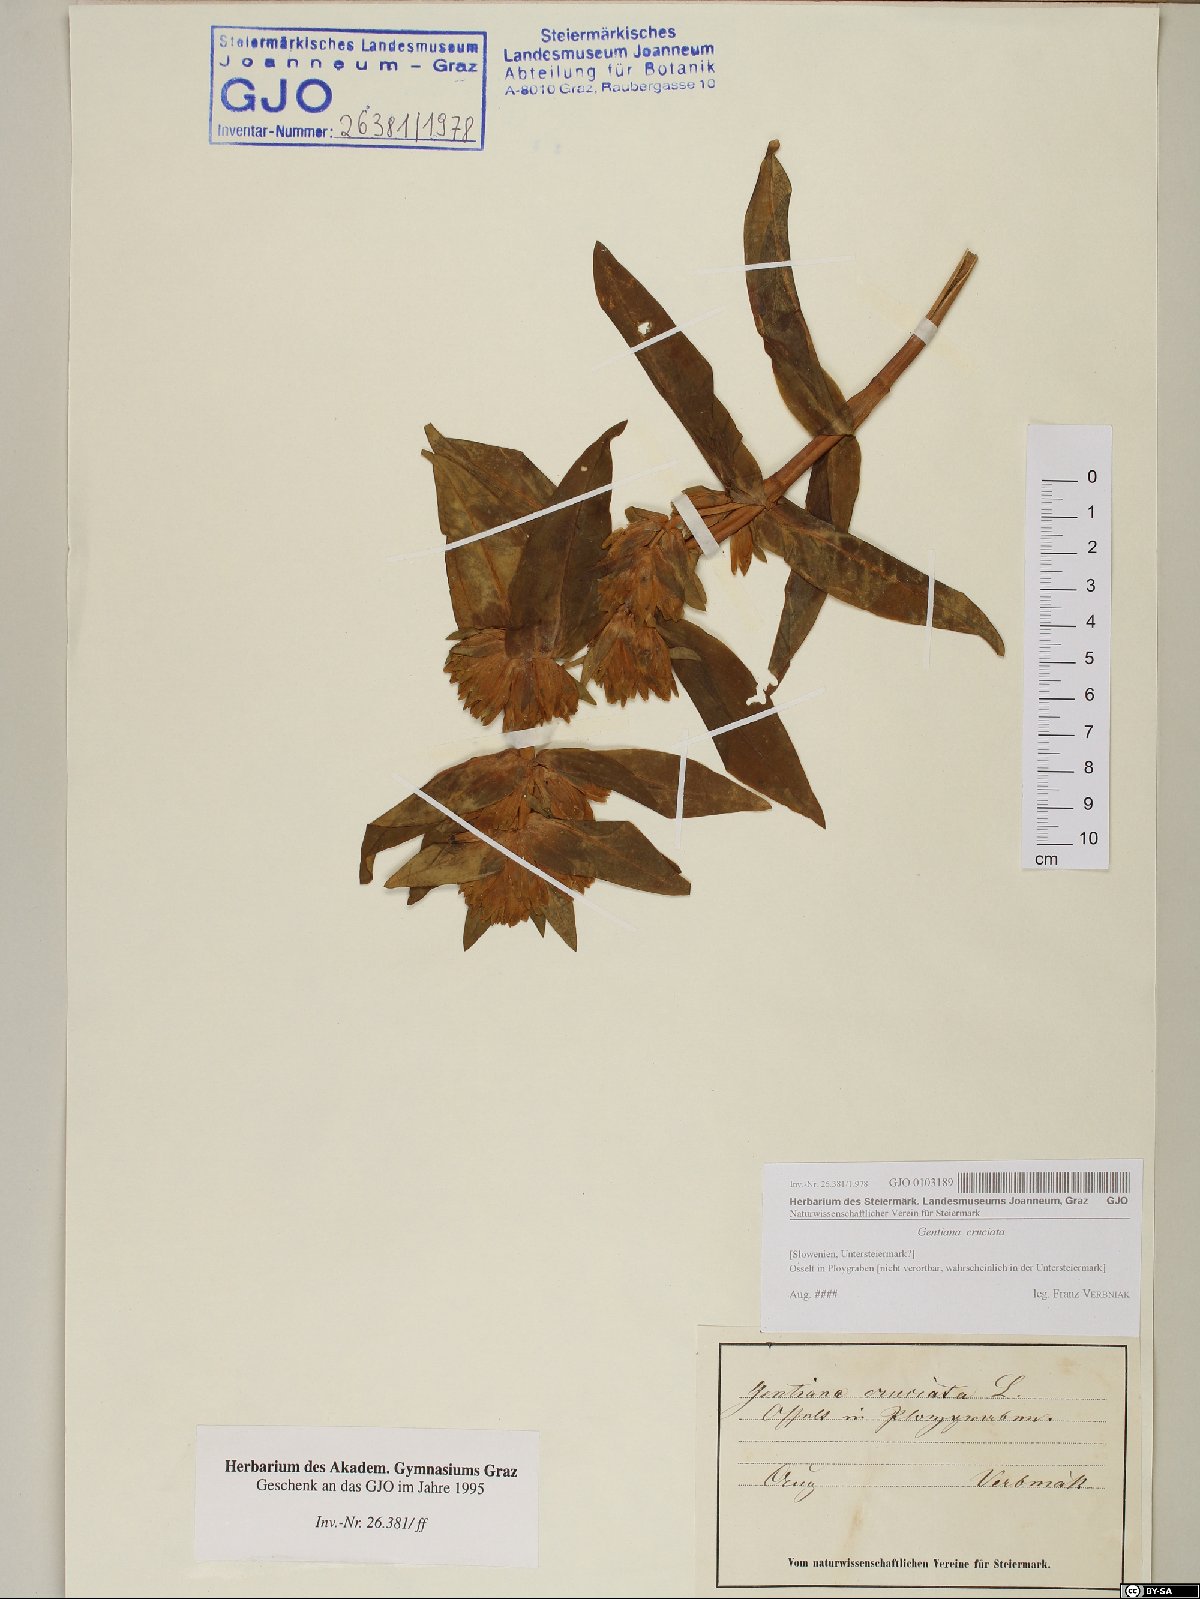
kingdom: Plantae
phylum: Tracheophyta
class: Magnoliopsida
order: Gentianales
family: Gentianaceae
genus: Gentiana
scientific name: Gentiana cruciata
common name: Cross gentian
